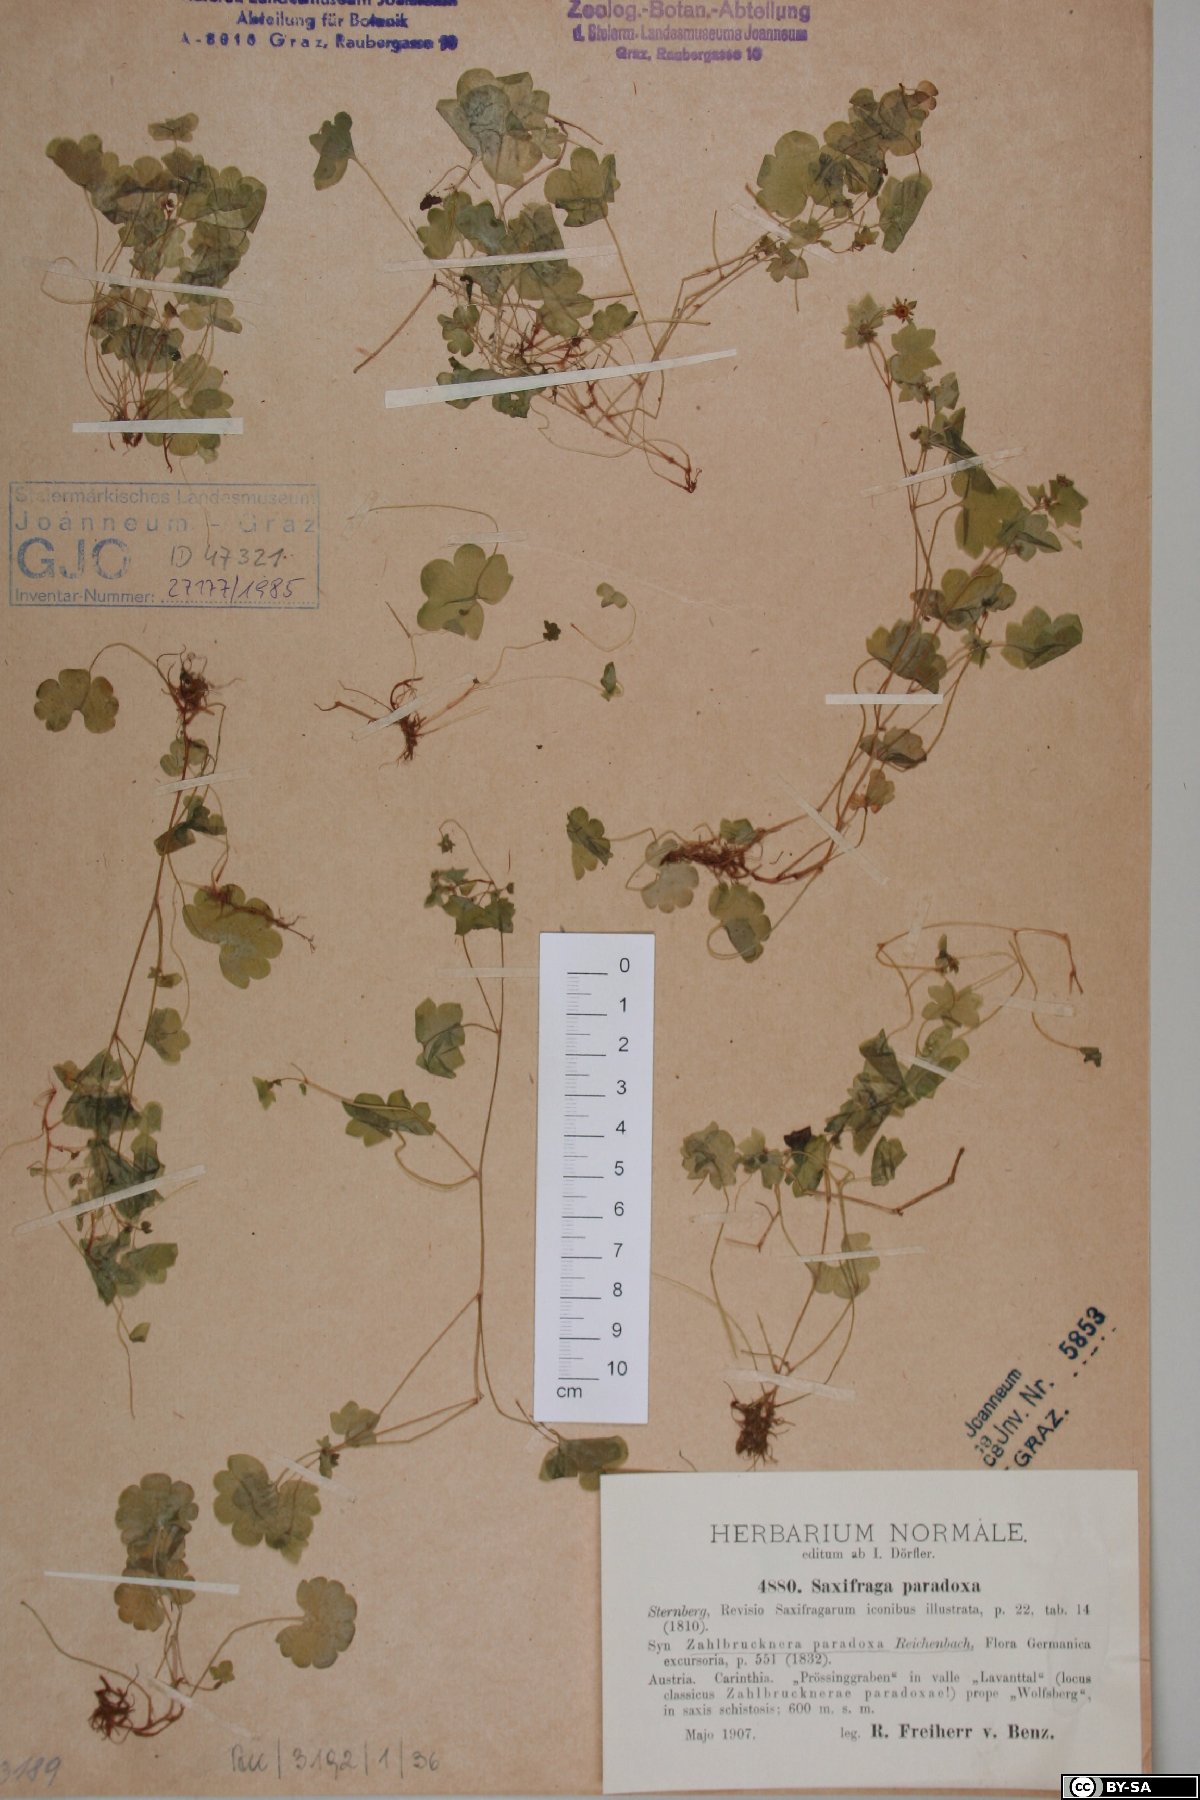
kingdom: Plantae
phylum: Tracheophyta
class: Magnoliopsida
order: Saxifragales
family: Saxifragaceae
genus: Saxifraga
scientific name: Saxifraga paradoxa
